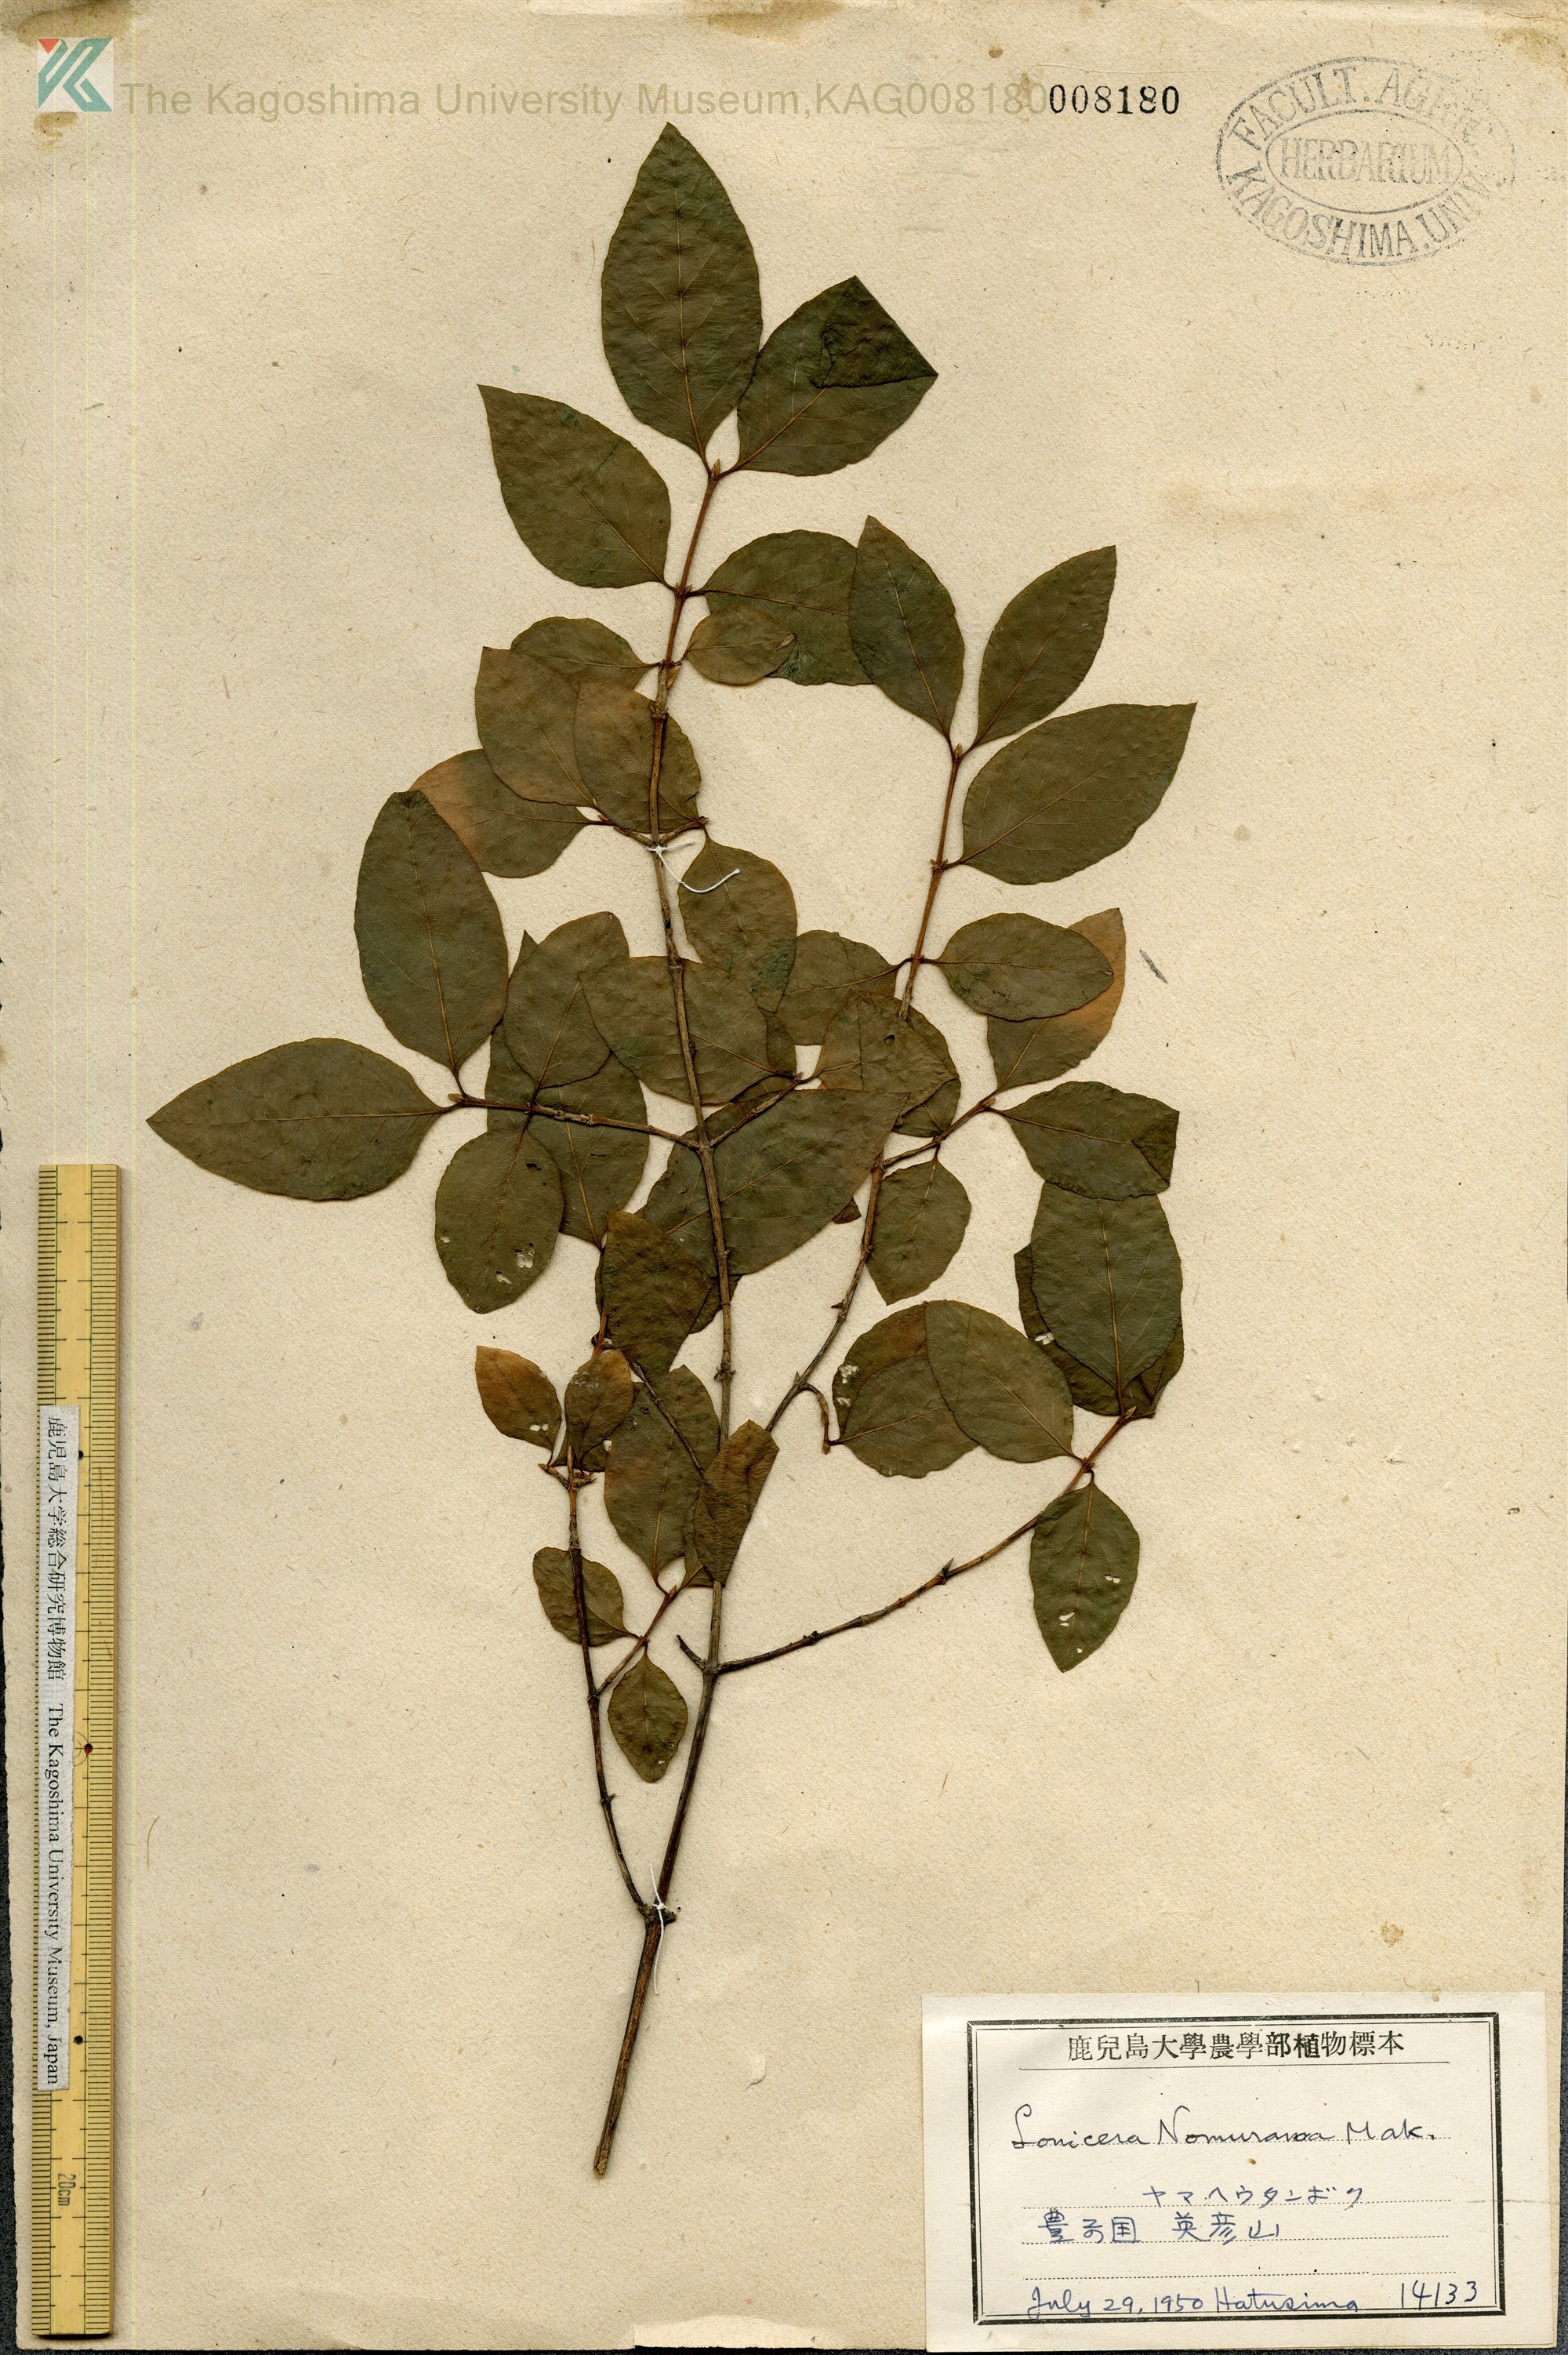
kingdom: Plantae
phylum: Tracheophyta
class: Magnoliopsida
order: Dipsacales
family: Caprifoliaceae
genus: Lonicera
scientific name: Lonicera subhispida
